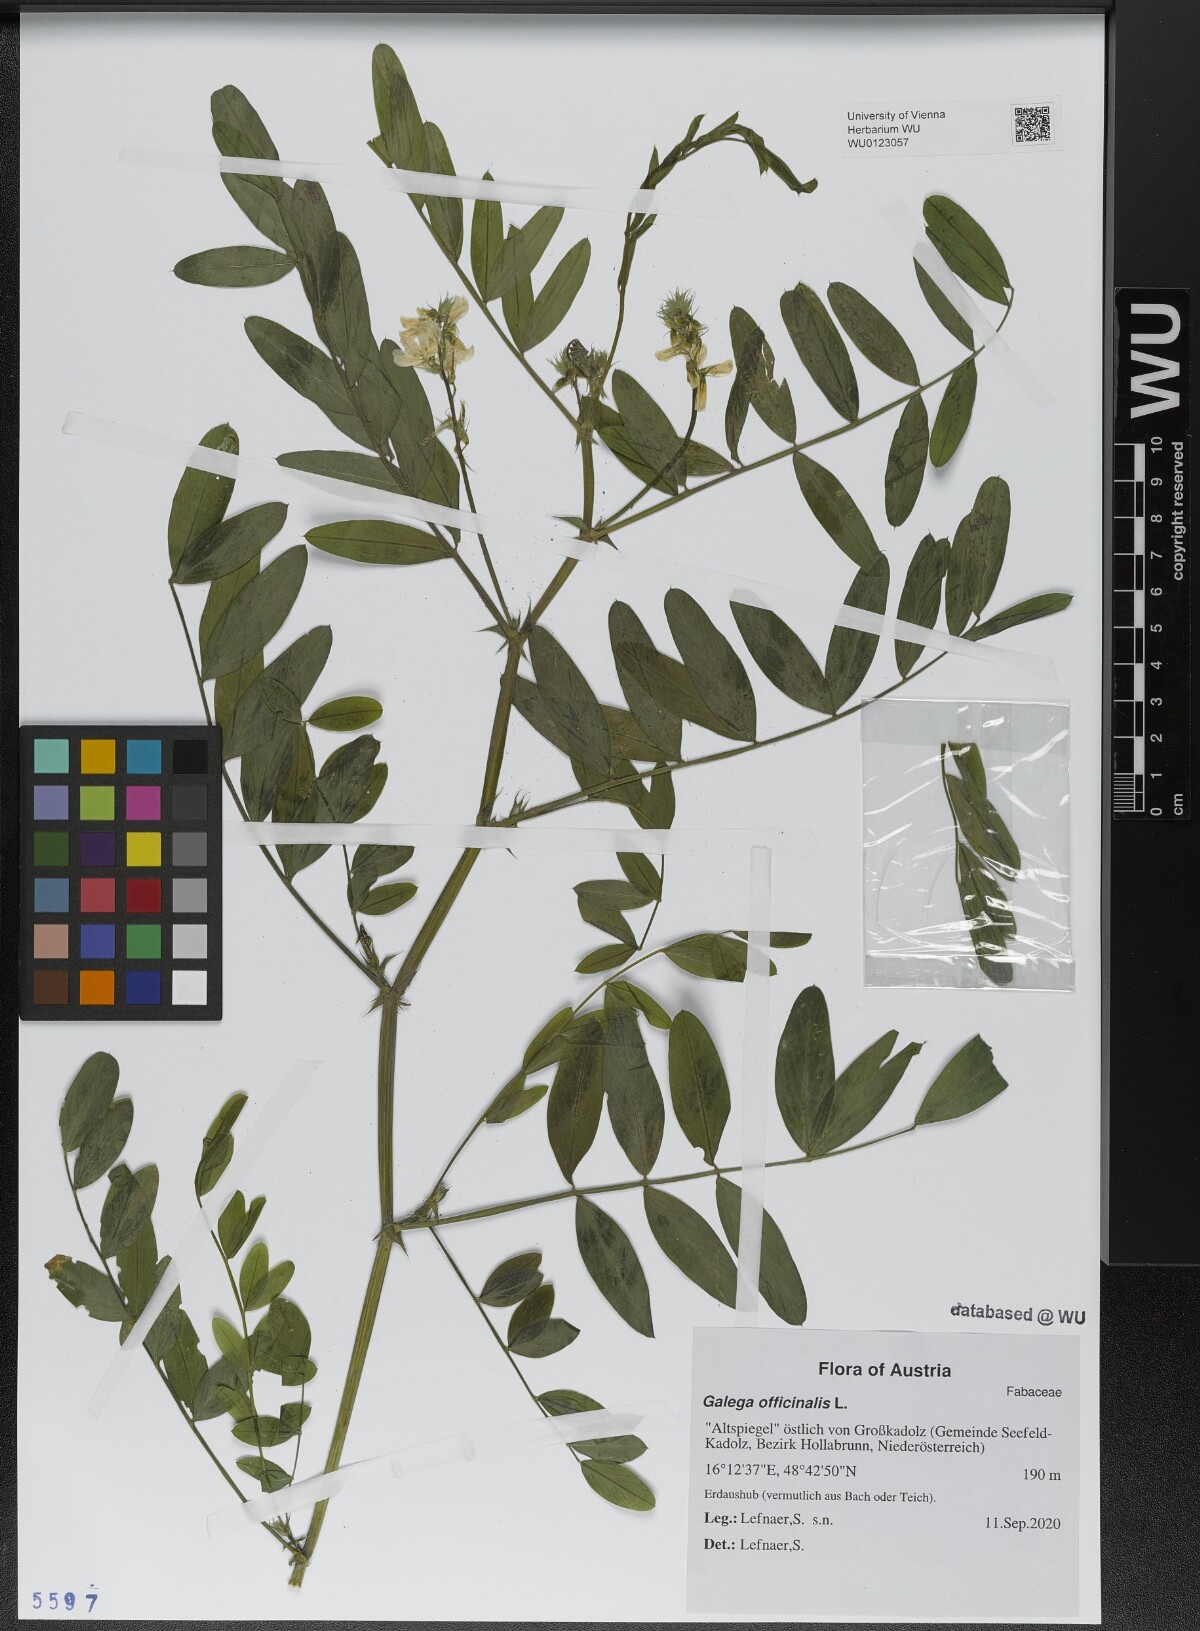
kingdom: Plantae
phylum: Tracheophyta
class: Magnoliopsida
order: Fabales
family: Fabaceae
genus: Galega
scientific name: Galega officinalis
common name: Goat's-rue
